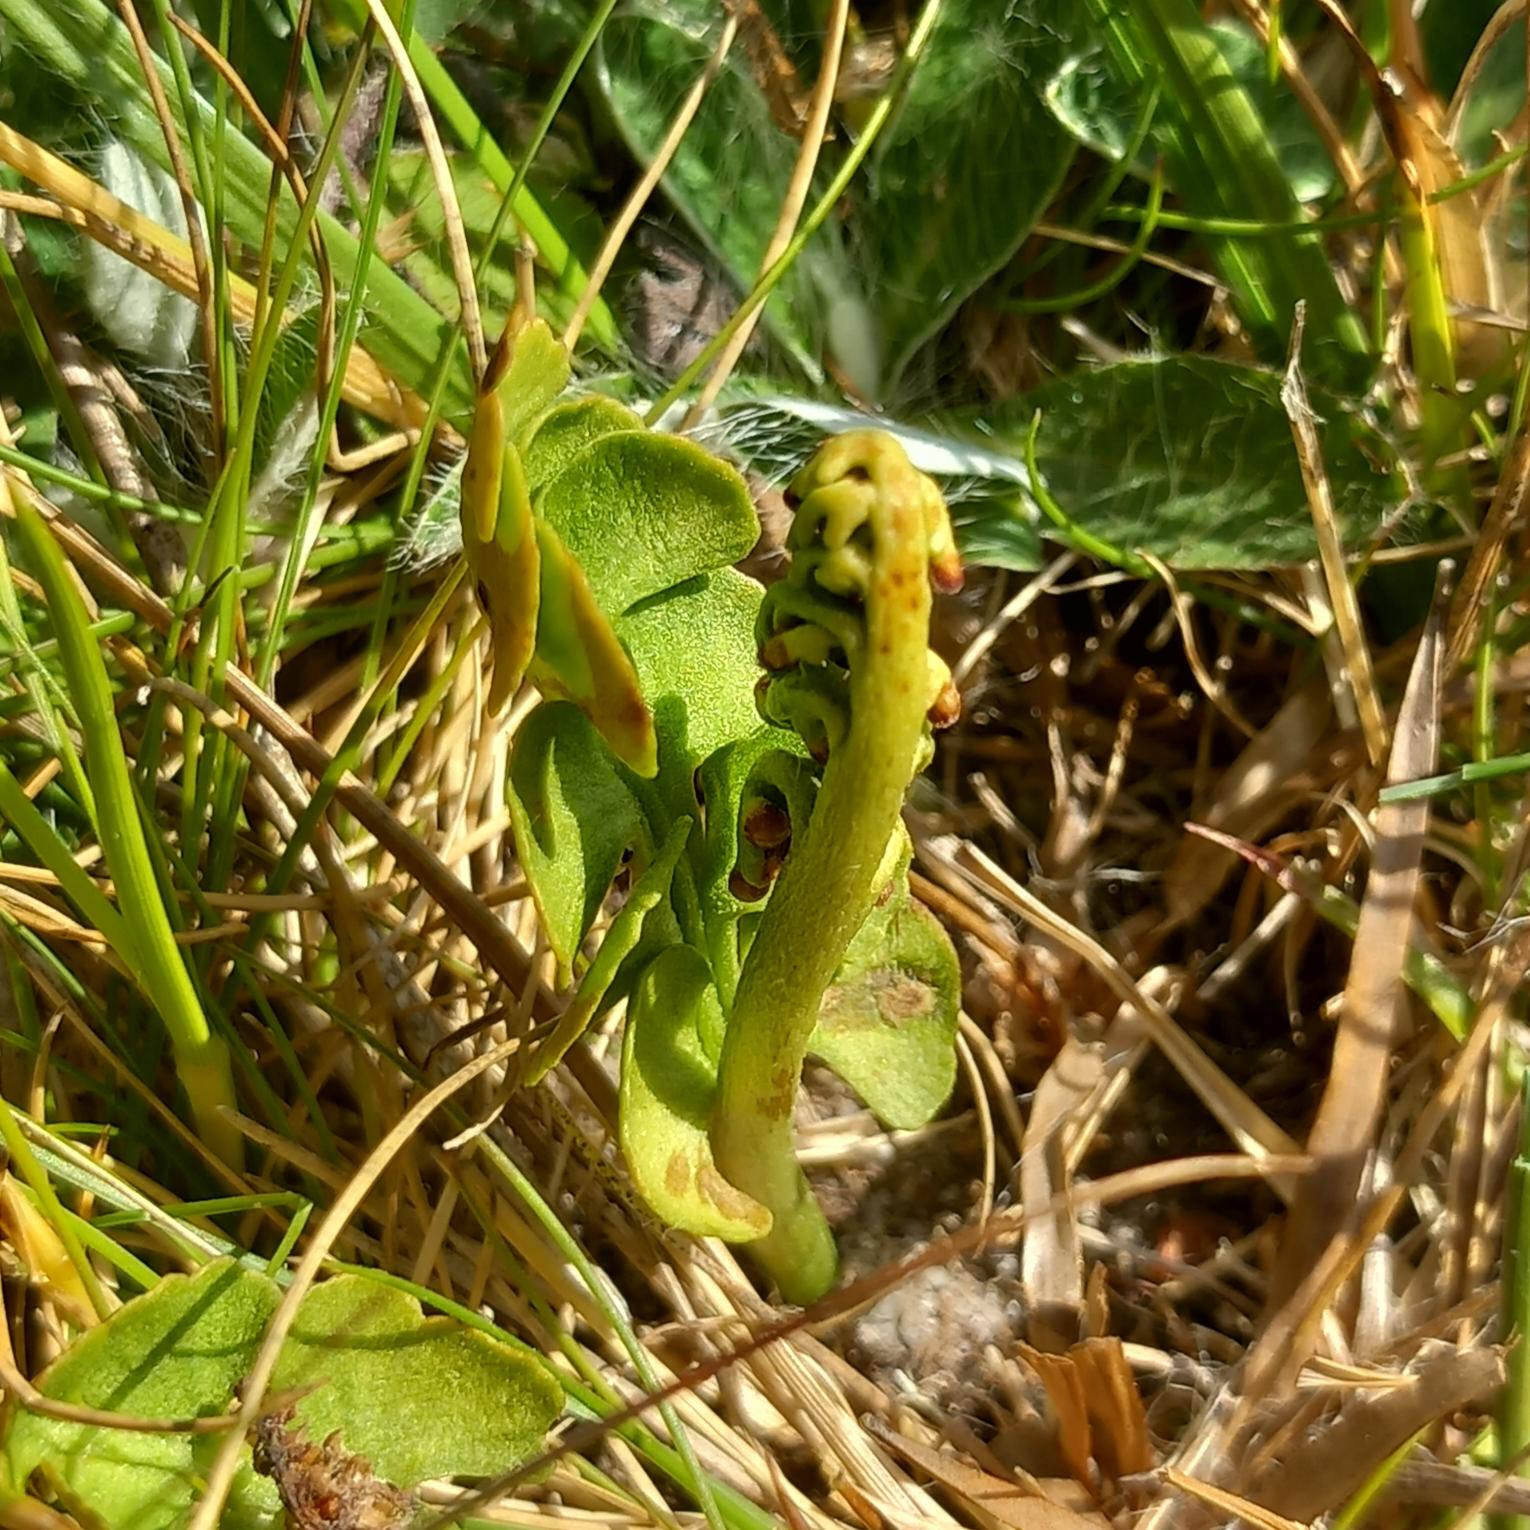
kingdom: Plantae
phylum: Tracheophyta
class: Polypodiopsida
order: Ophioglossales
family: Ophioglossaceae
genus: Botrychium
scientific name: Botrychium lunaria
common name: Almindelig månerude
